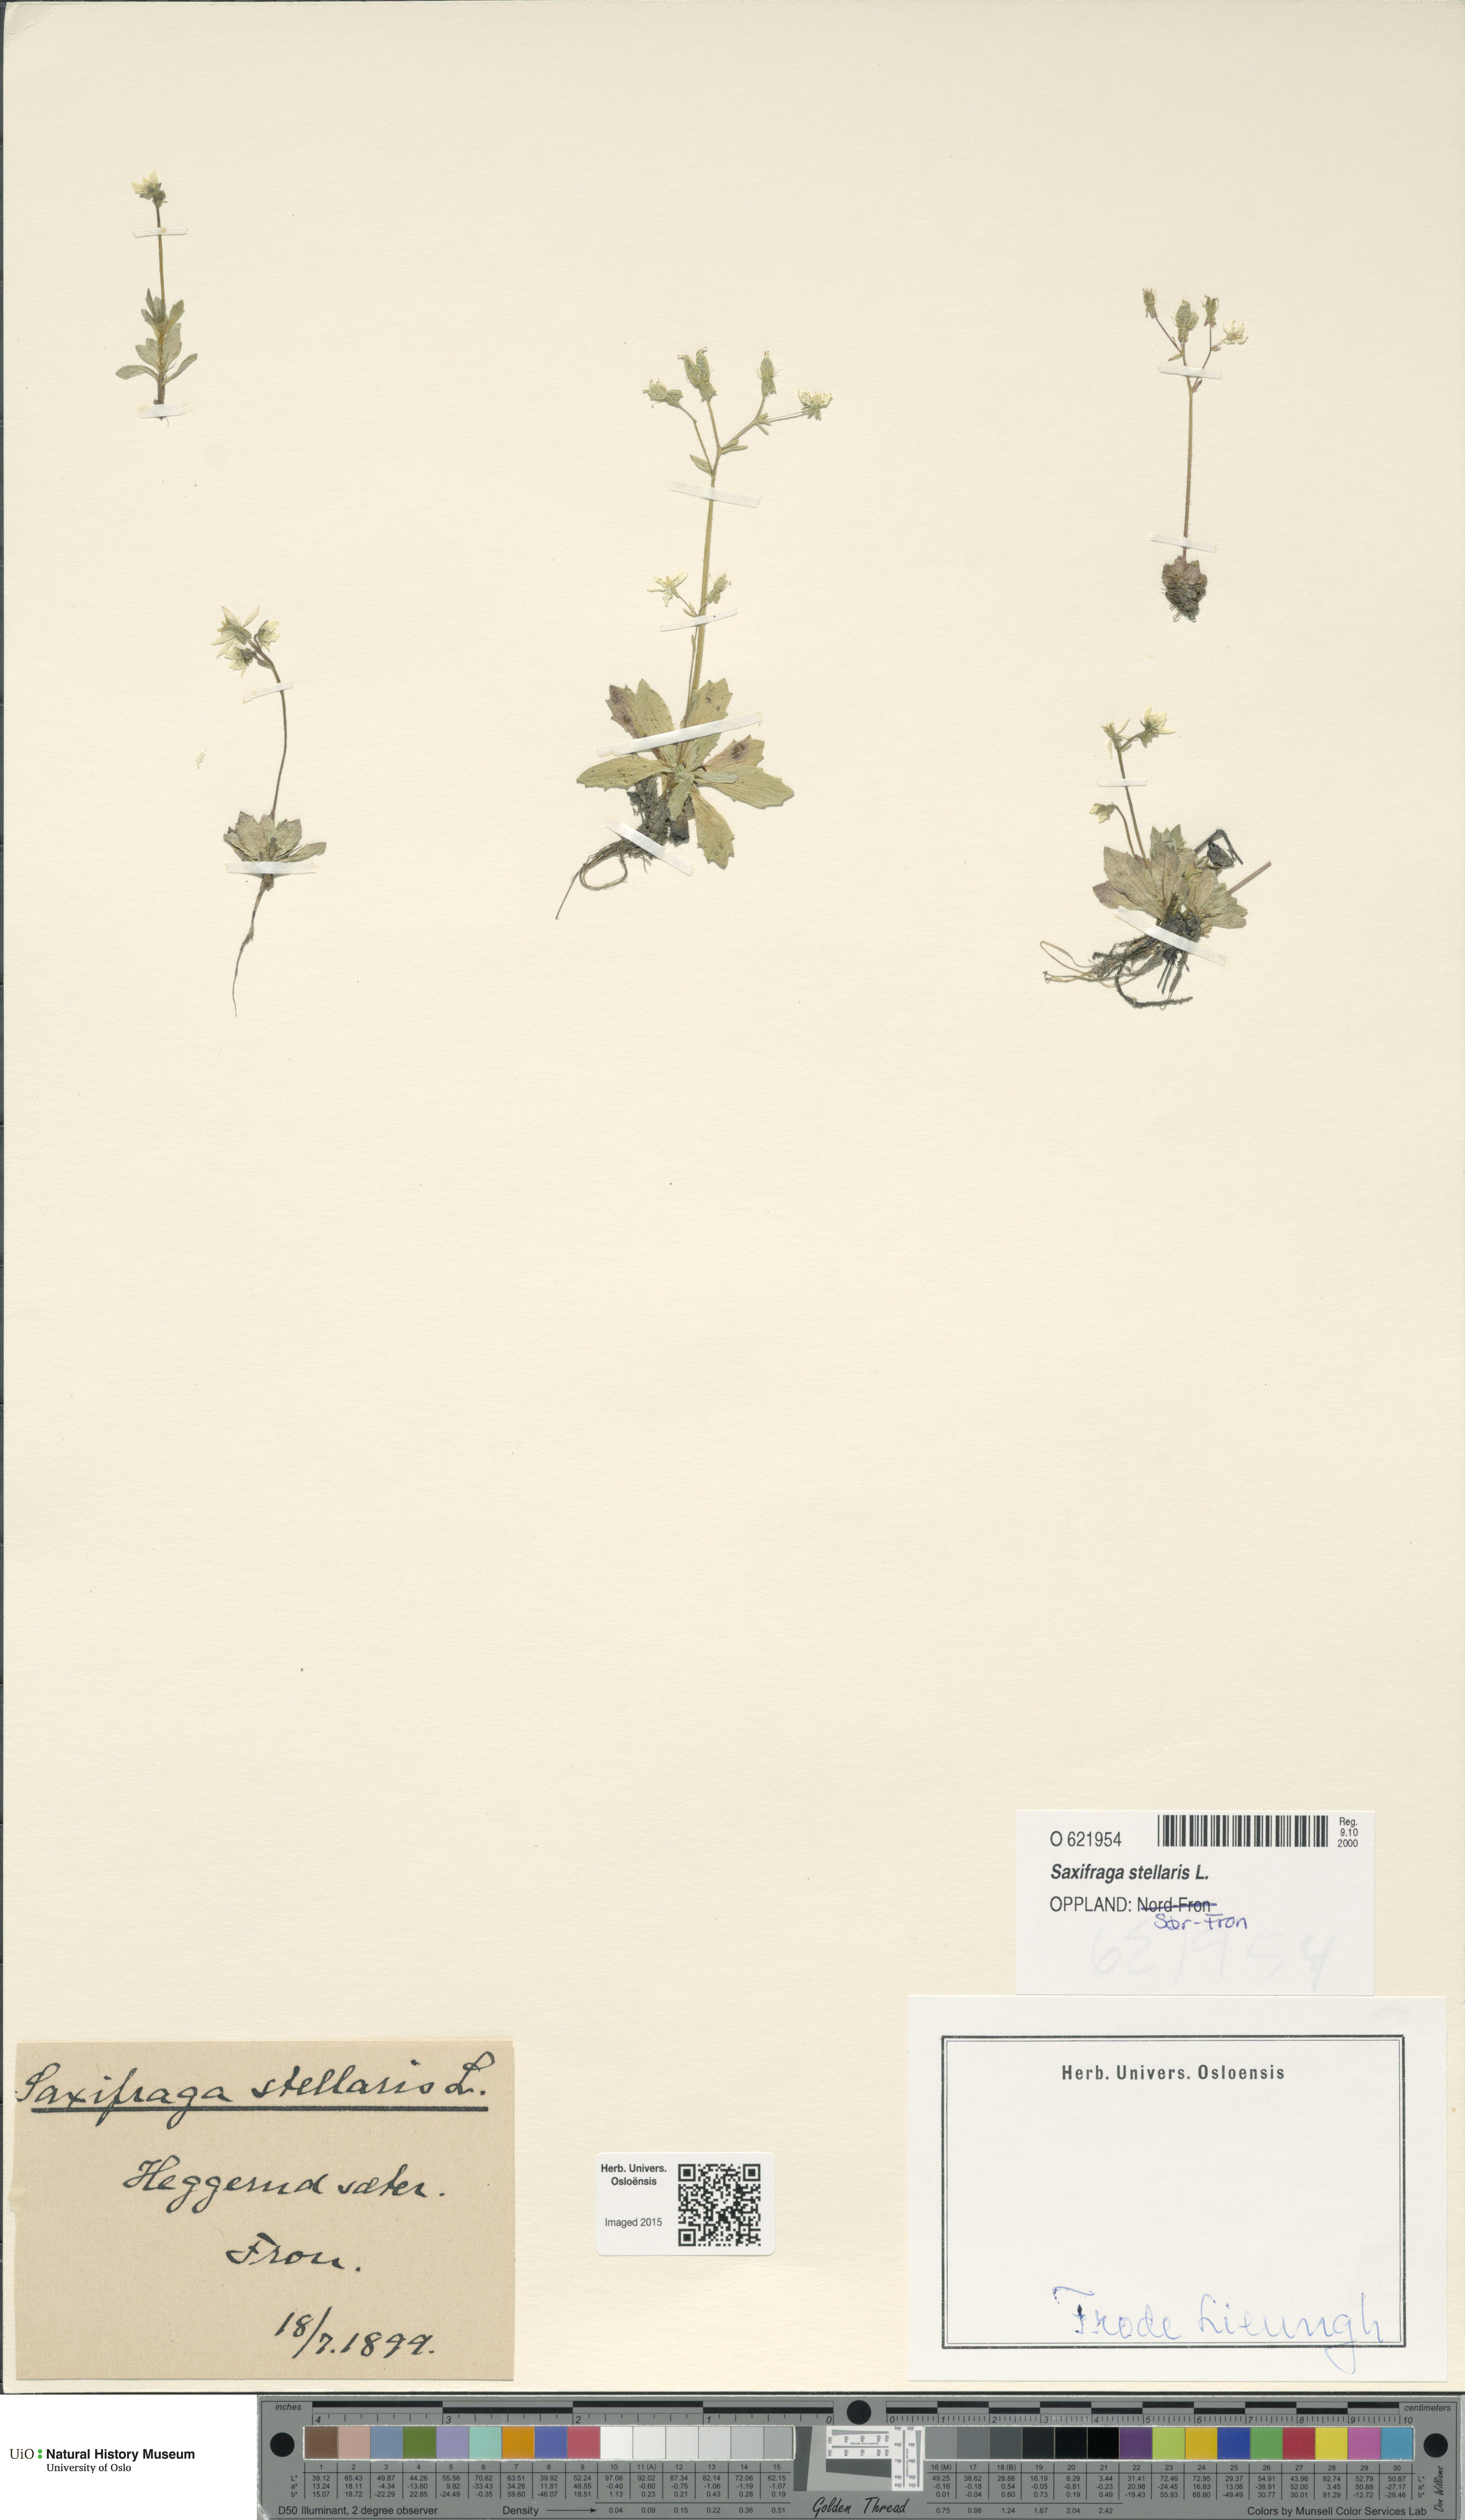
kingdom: Plantae
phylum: Tracheophyta
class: Magnoliopsida
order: Saxifragales
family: Saxifragaceae
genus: Micranthes
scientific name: Micranthes stellaris
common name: Starry saxifrage
